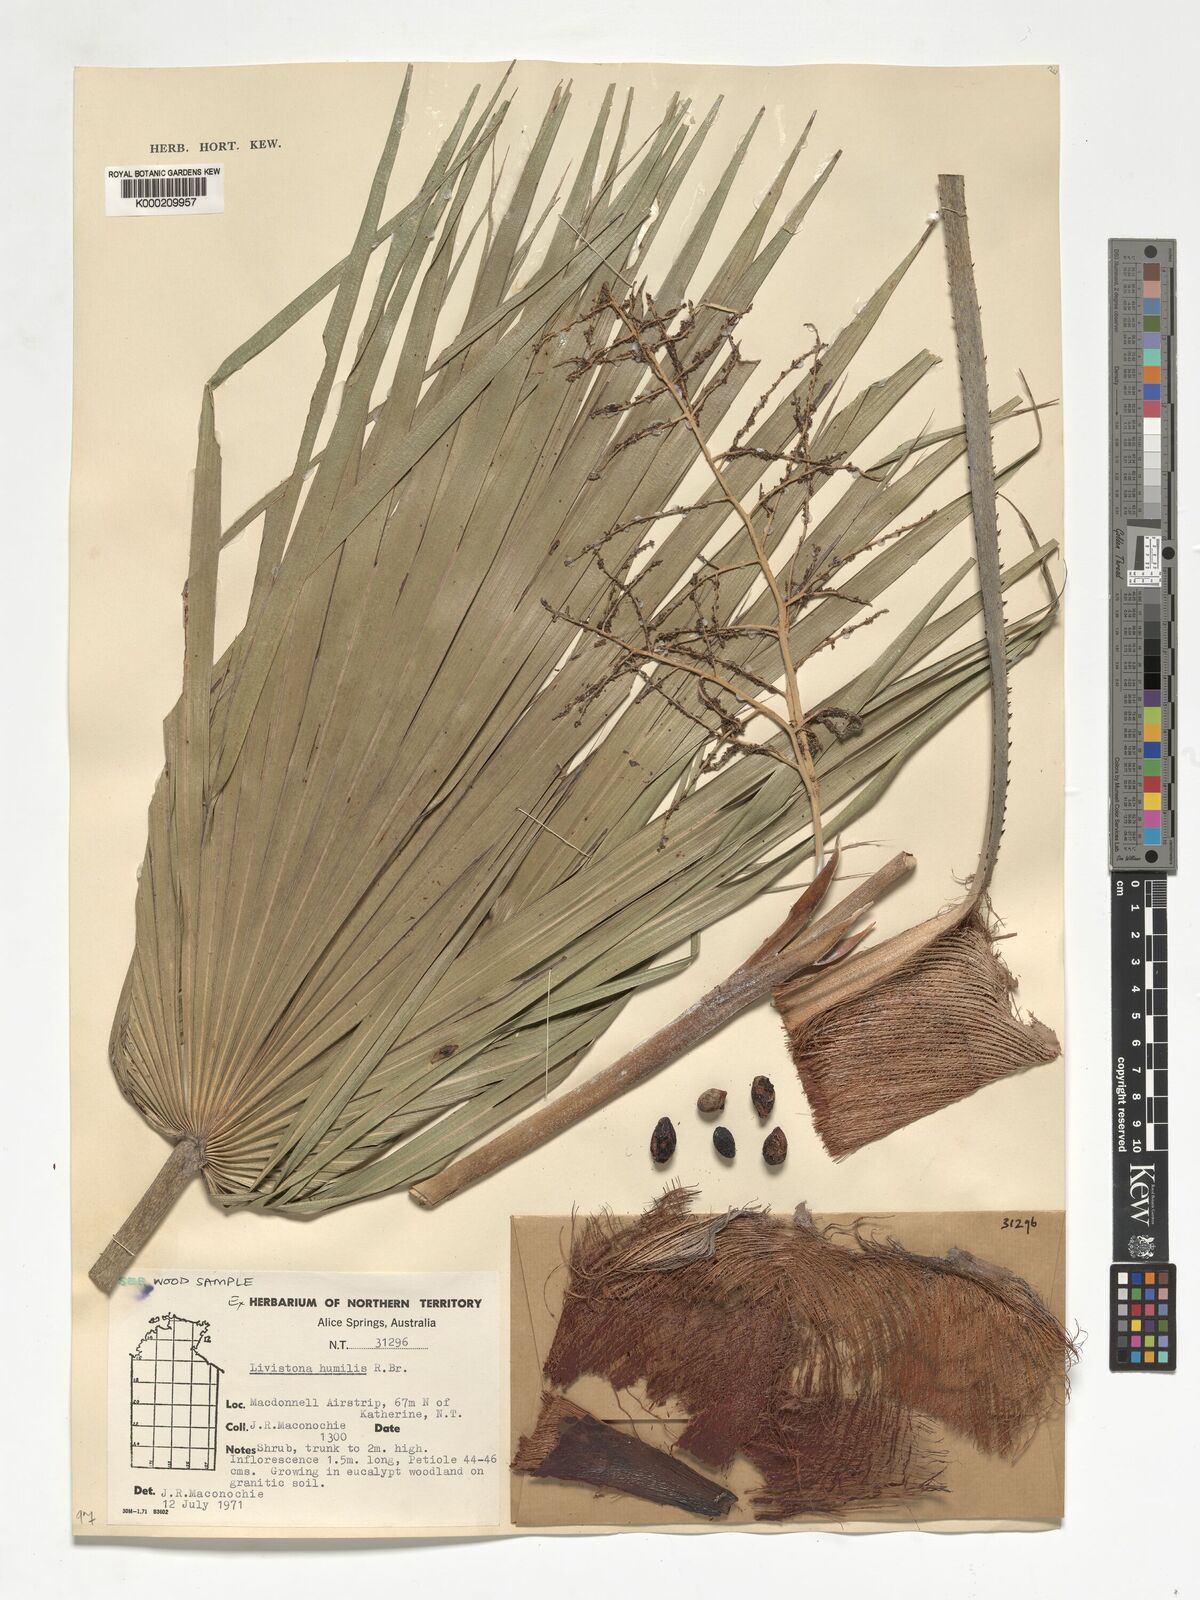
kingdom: Plantae
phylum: Tracheophyta
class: Liliopsida
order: Arecales
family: Arecaceae
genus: Livistona
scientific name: Livistona humilis
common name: Cabbage palm
